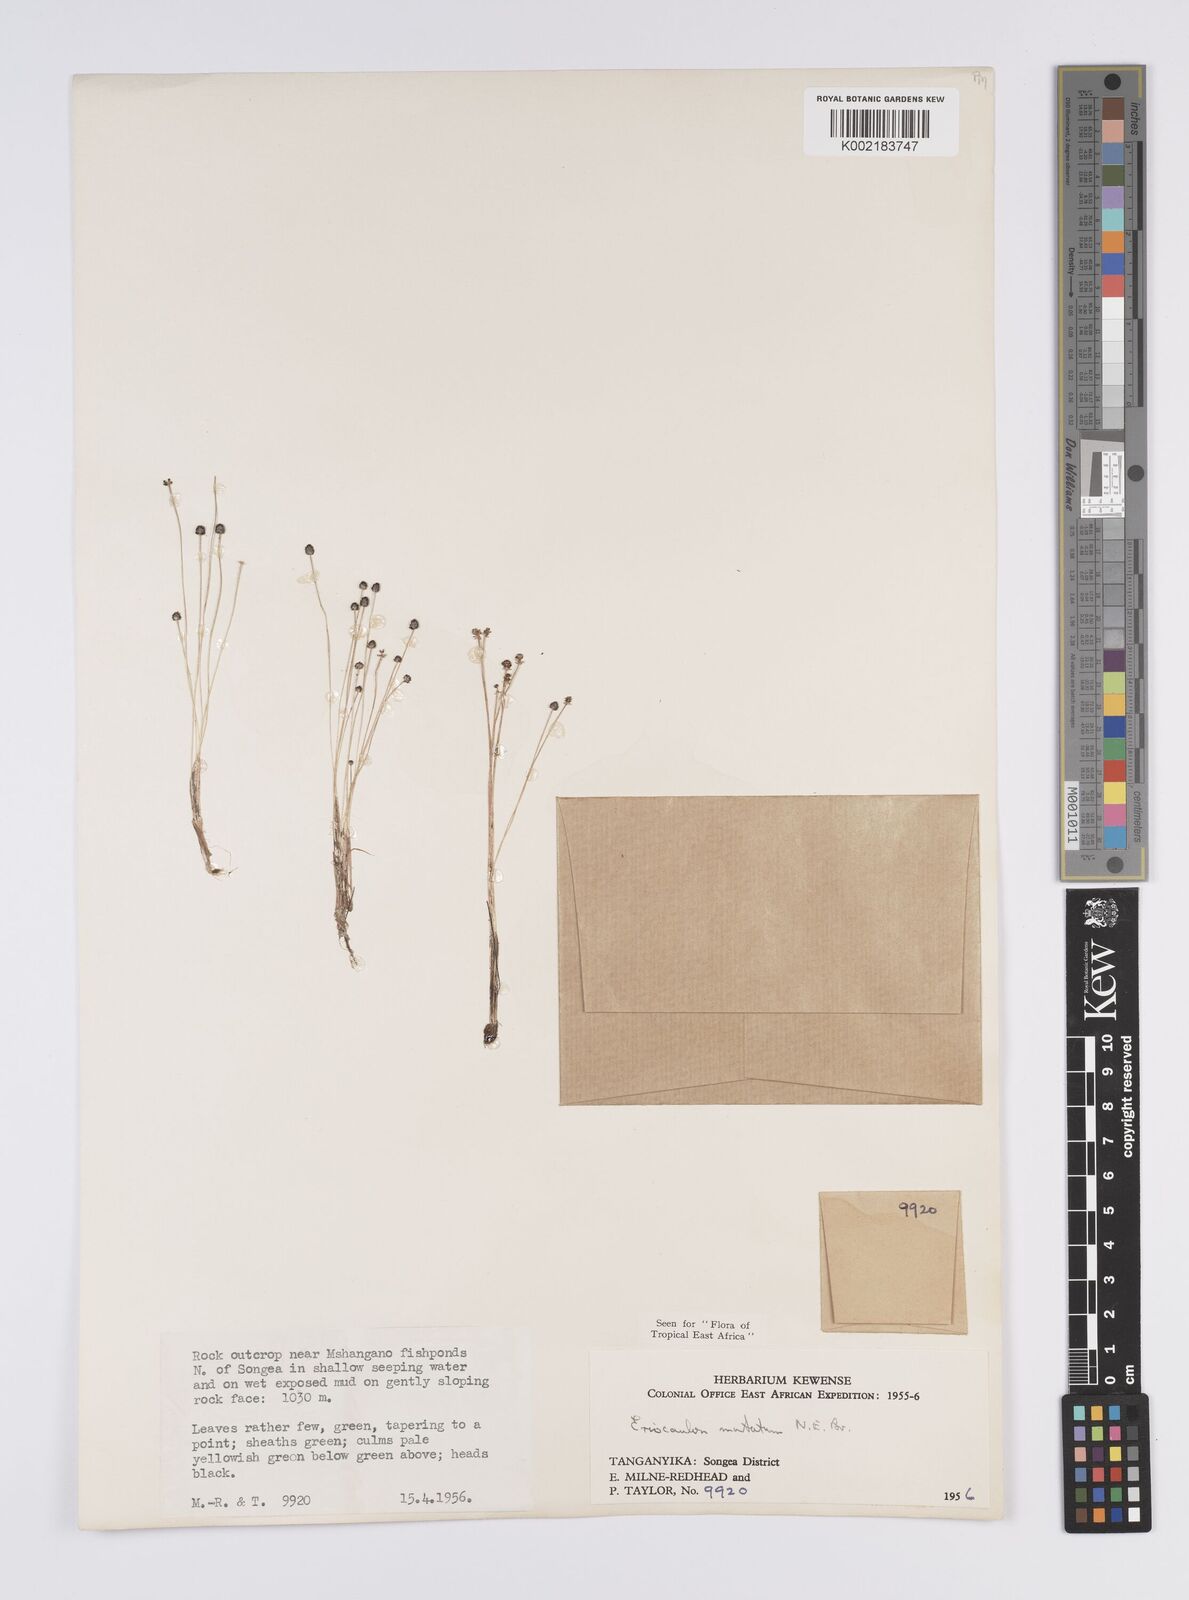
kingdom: Plantae
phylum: Tracheophyta
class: Liliopsida
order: Poales
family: Eriocaulaceae
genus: Eriocaulon
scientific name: Eriocaulon mutatum
